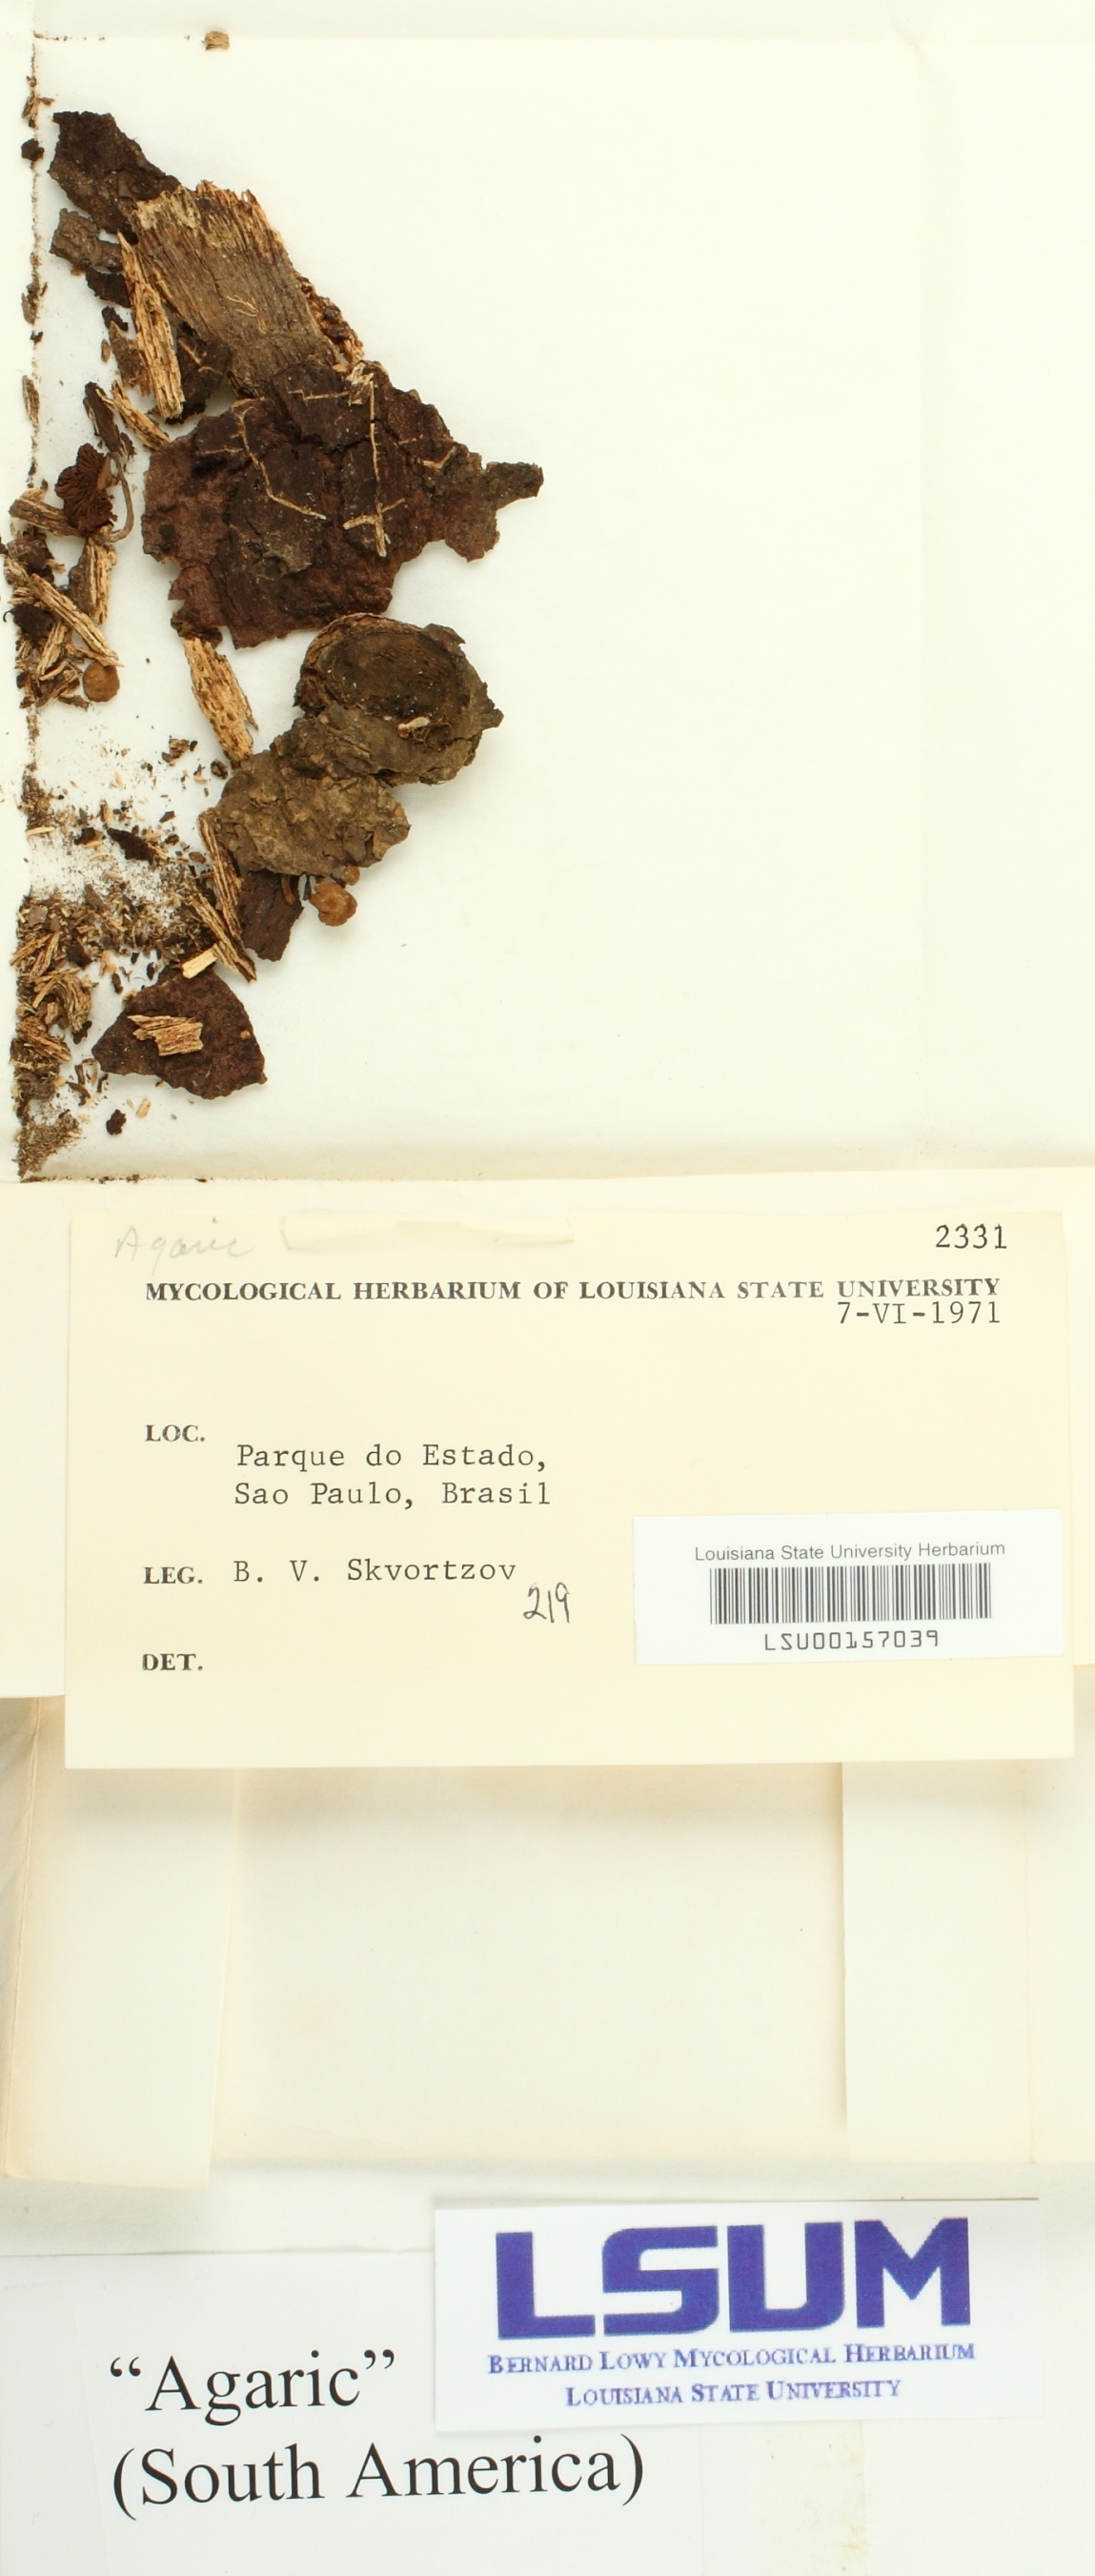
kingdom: Fungi
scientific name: Fungi
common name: Fungi
